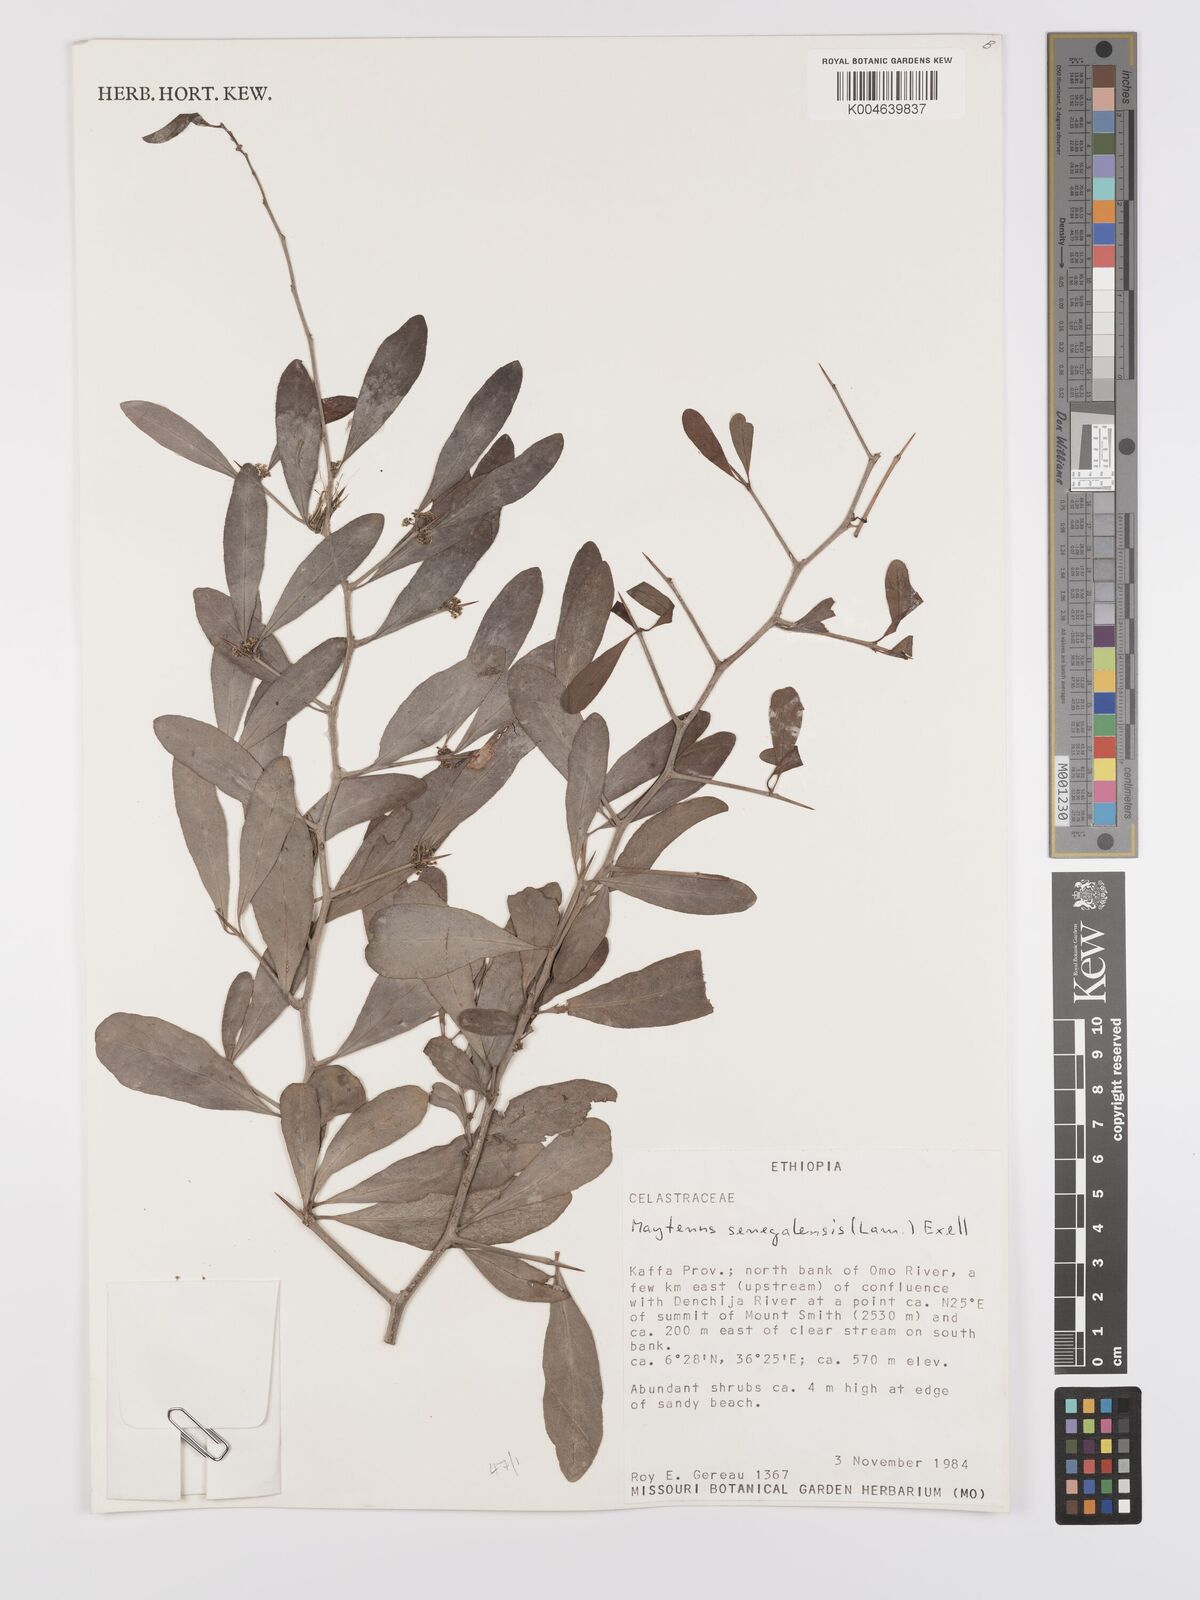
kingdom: Plantae
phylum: Tracheophyta
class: Magnoliopsida
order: Celastrales
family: Celastraceae
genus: Gymnosporia
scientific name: Gymnosporia senegalensis
